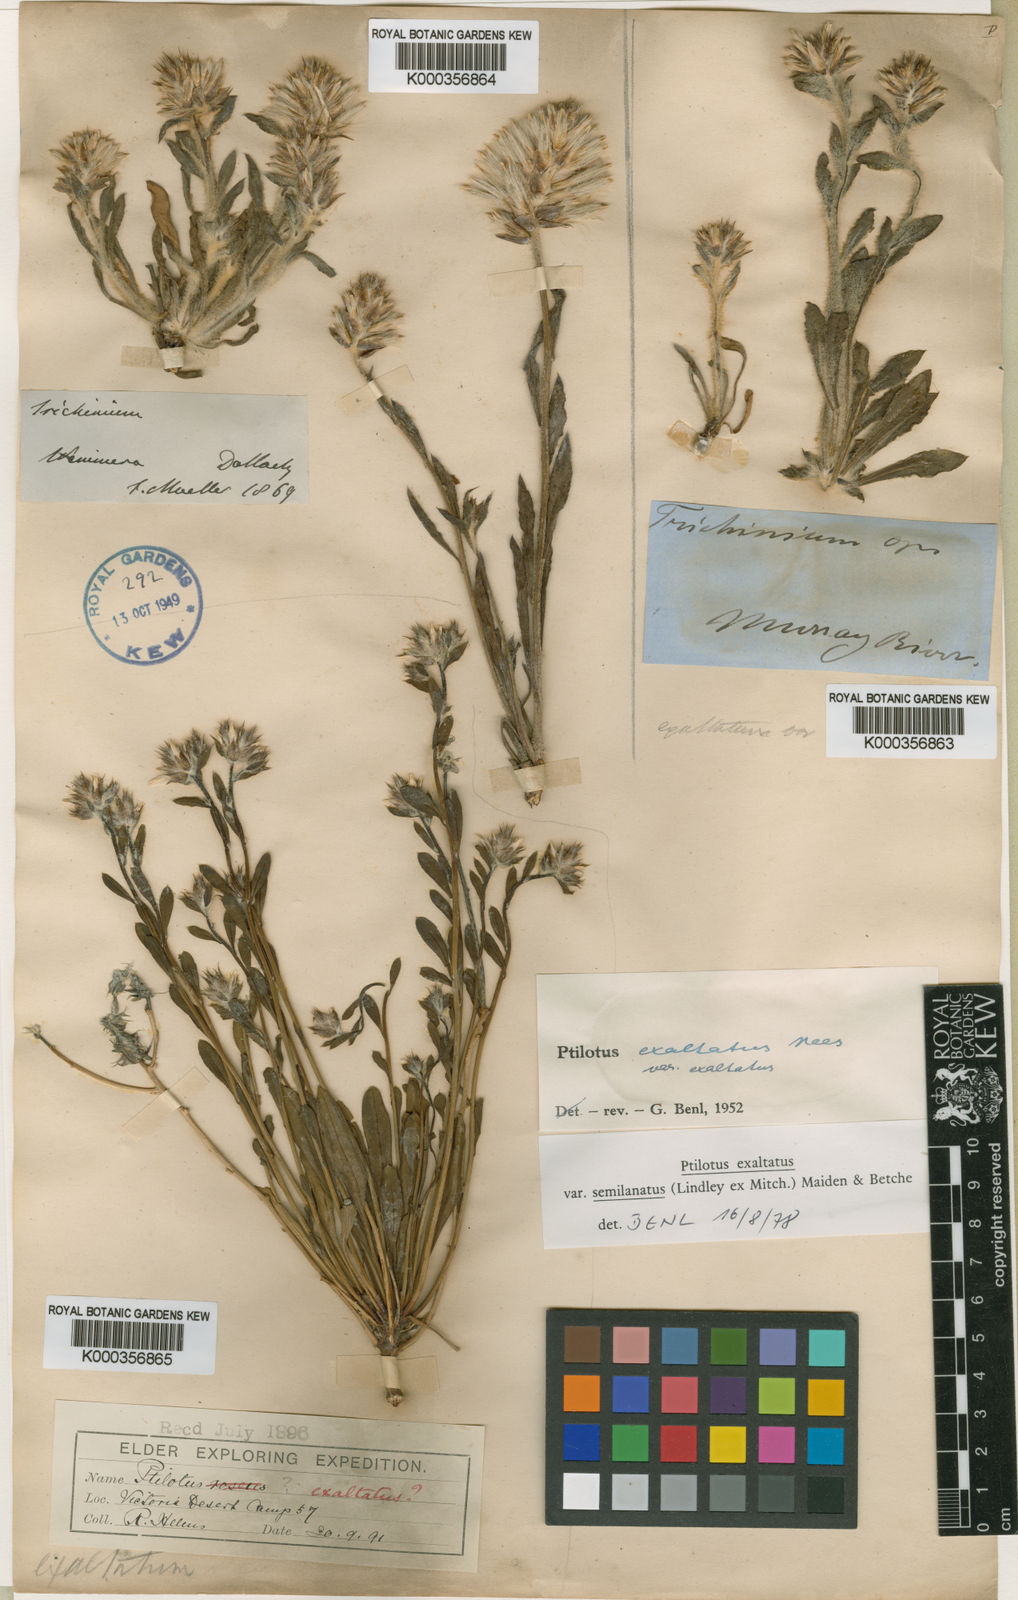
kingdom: Plantae
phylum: Tracheophyta
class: Magnoliopsida
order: Caryophyllales
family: Amaranthaceae
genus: Ptilotus
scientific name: Ptilotus semilanatus
